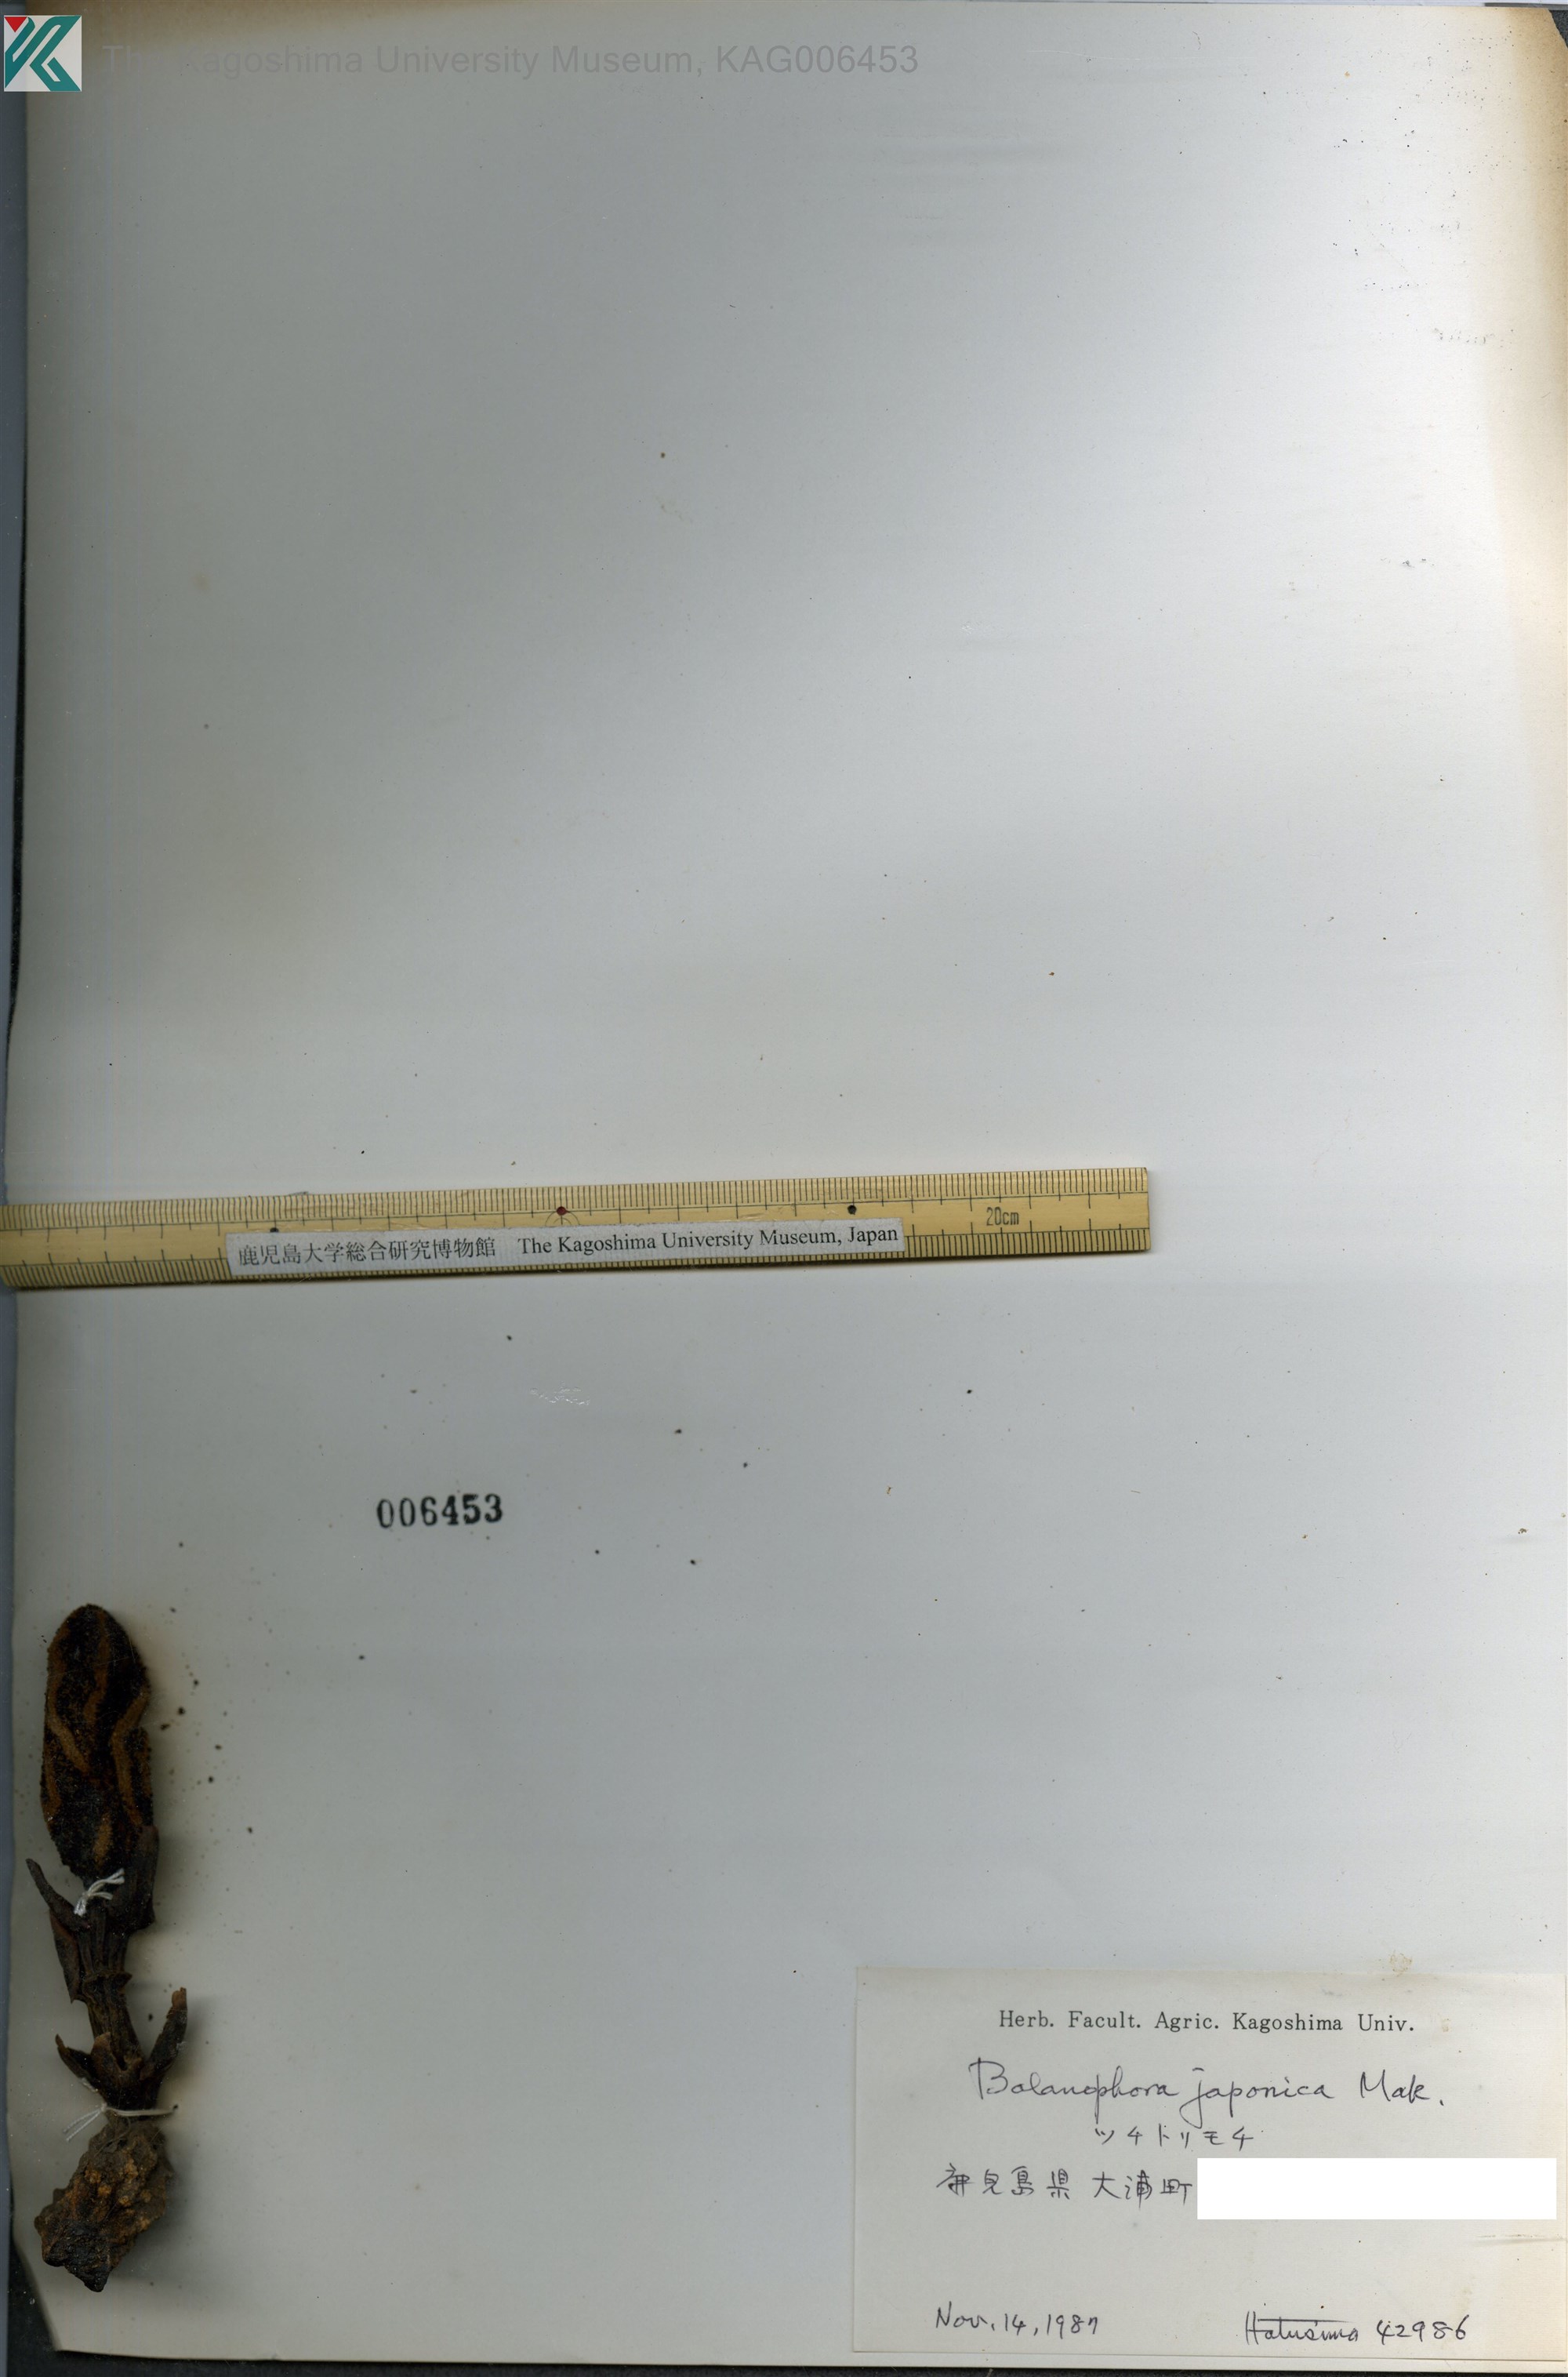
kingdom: Plantae
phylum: Tracheophyta
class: Magnoliopsida
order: Santalales
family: Balanophoraceae
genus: Balanophora
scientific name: Balanophora japonica
